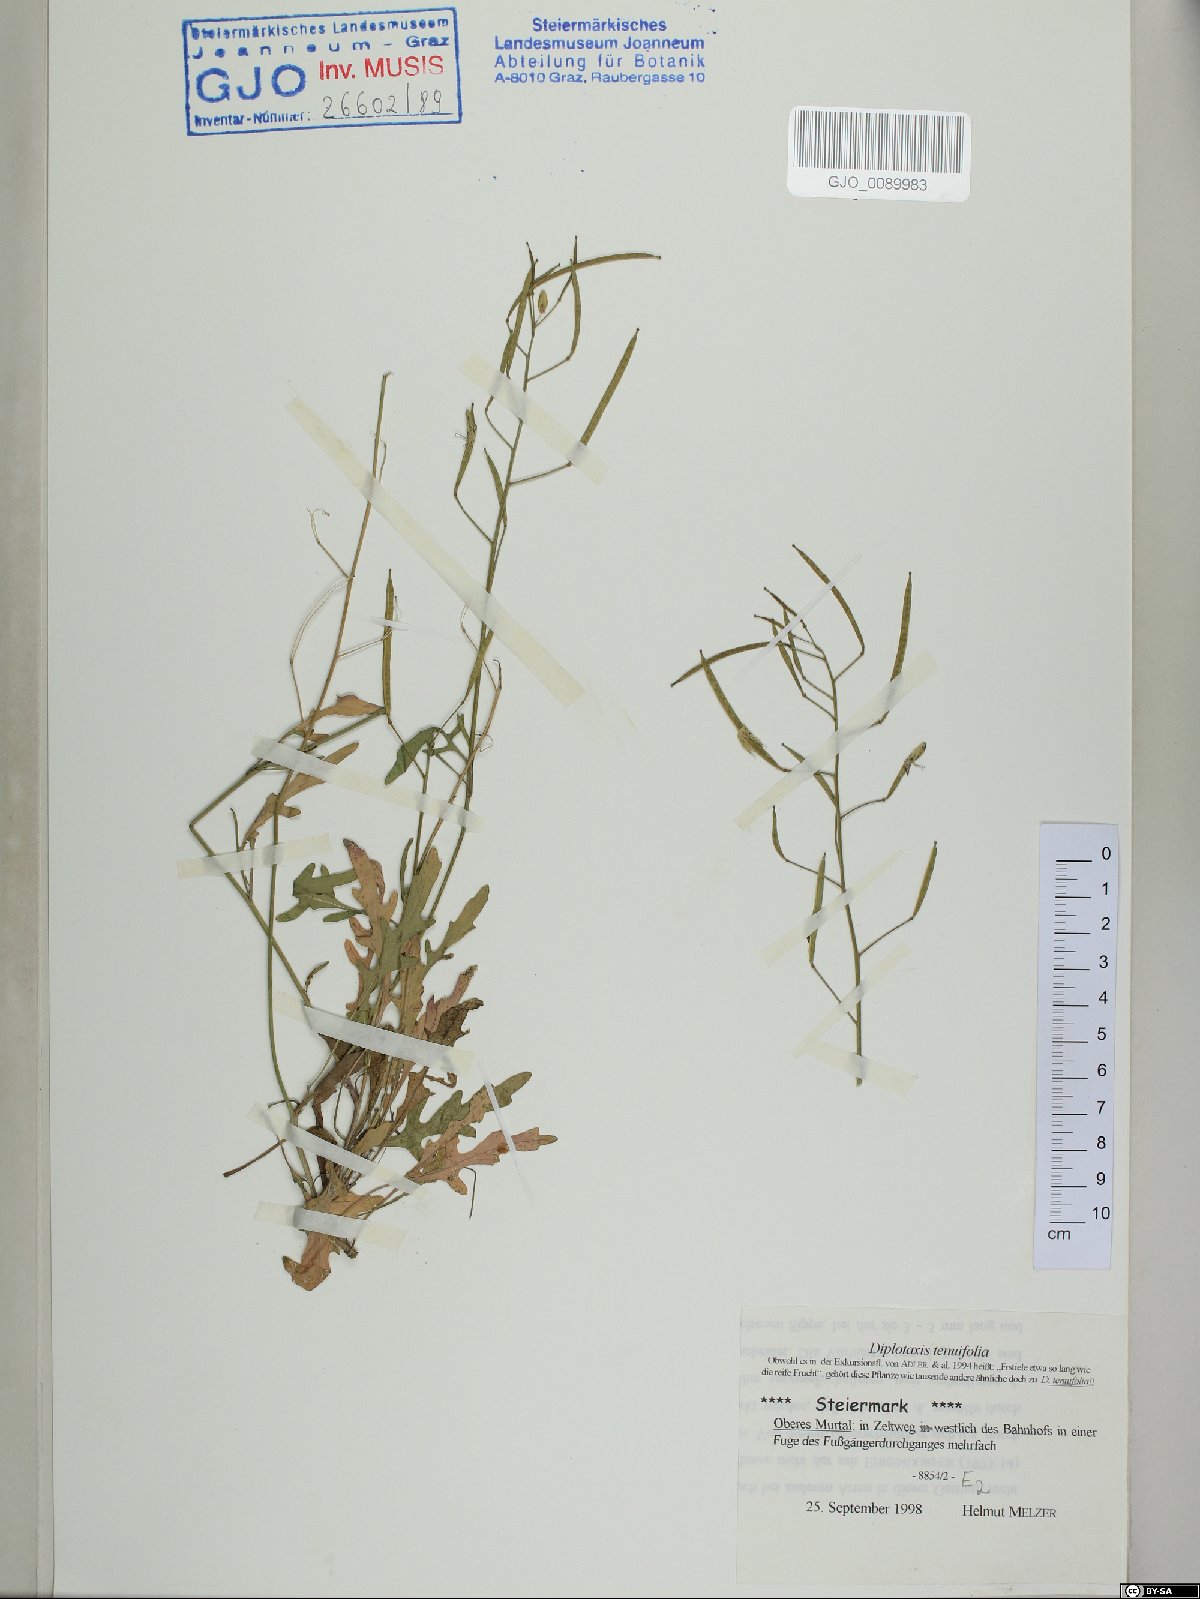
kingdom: Plantae
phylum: Tracheophyta
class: Magnoliopsida
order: Brassicales
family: Brassicaceae
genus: Diplotaxis
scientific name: Diplotaxis tenuifolia
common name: Perennial wall-rocket
